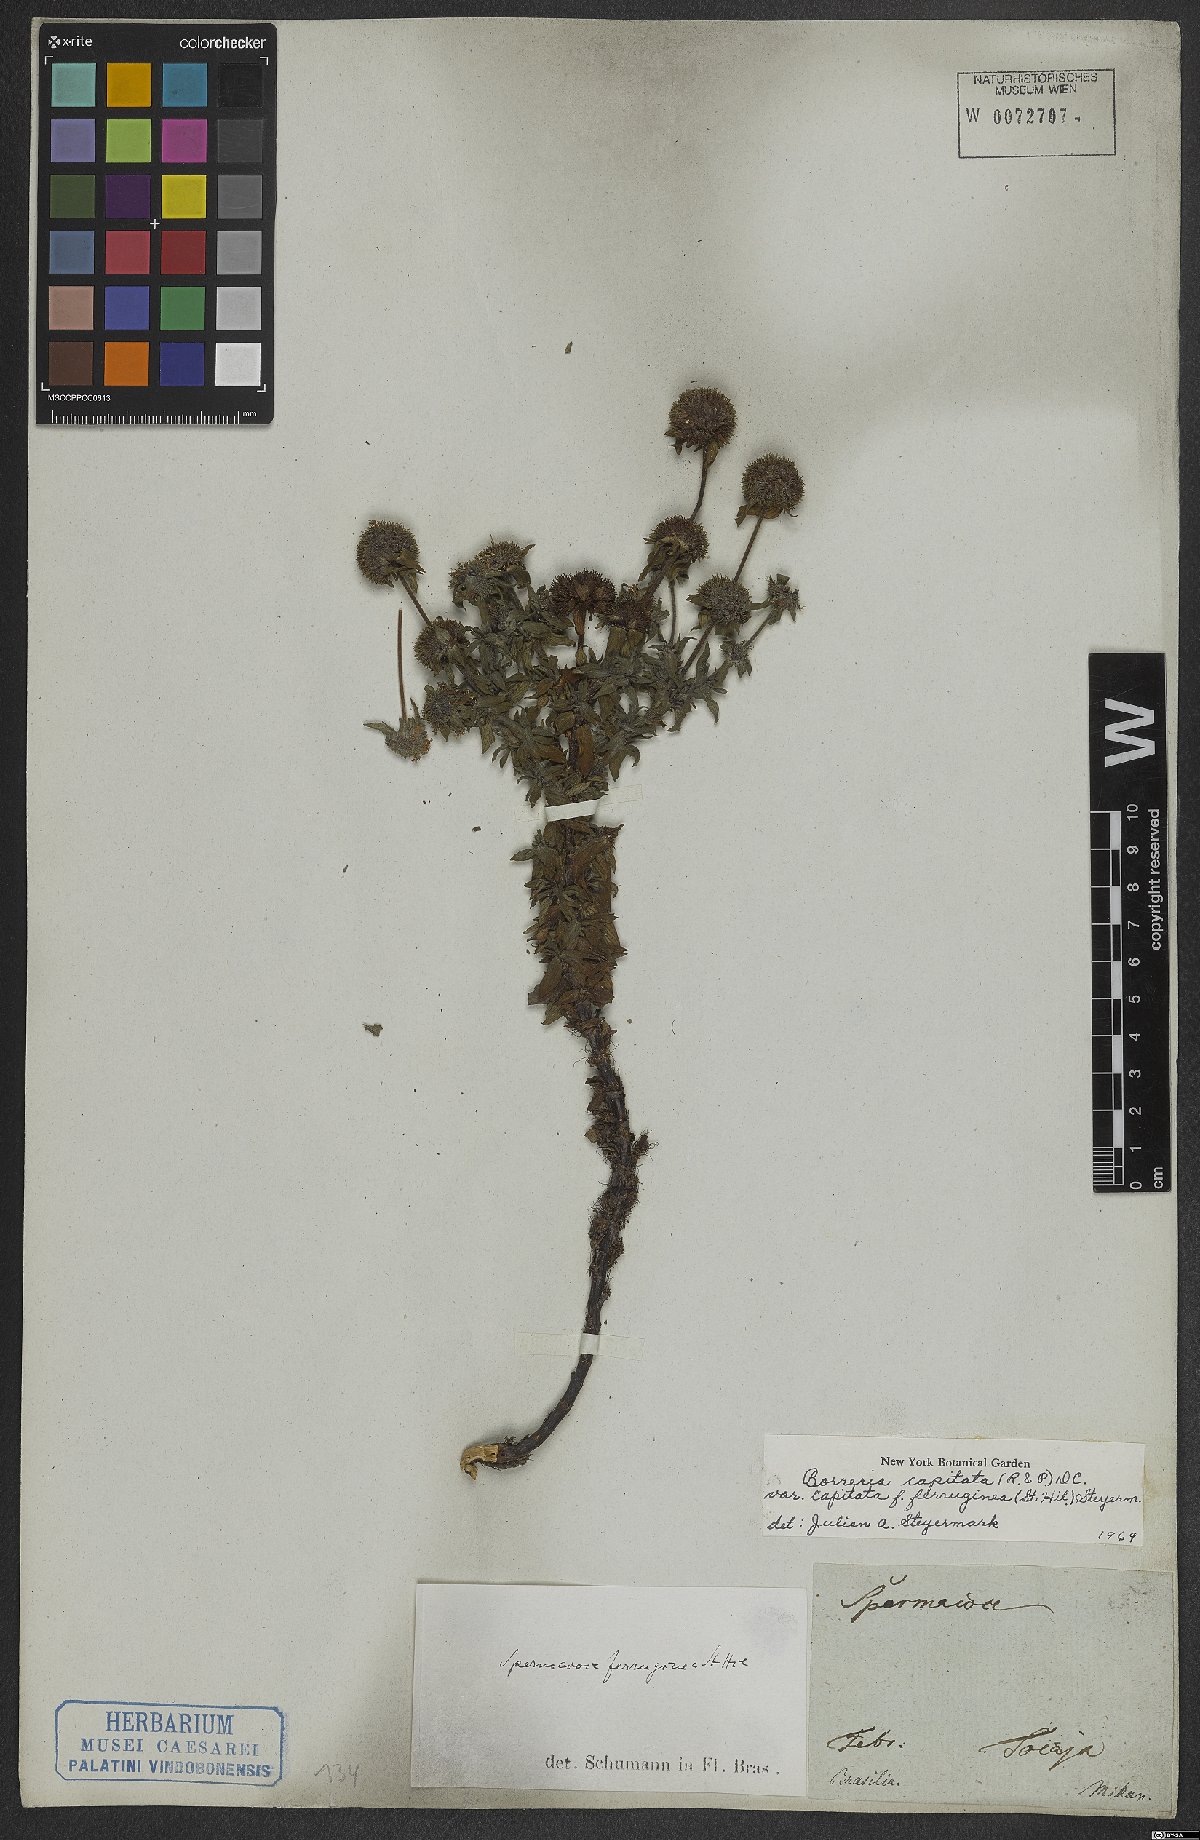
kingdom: Plantae
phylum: Tracheophyta
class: Magnoliopsida
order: Gentianales
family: Rubiaceae
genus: Spermacoce
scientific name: Spermacoce capitata
